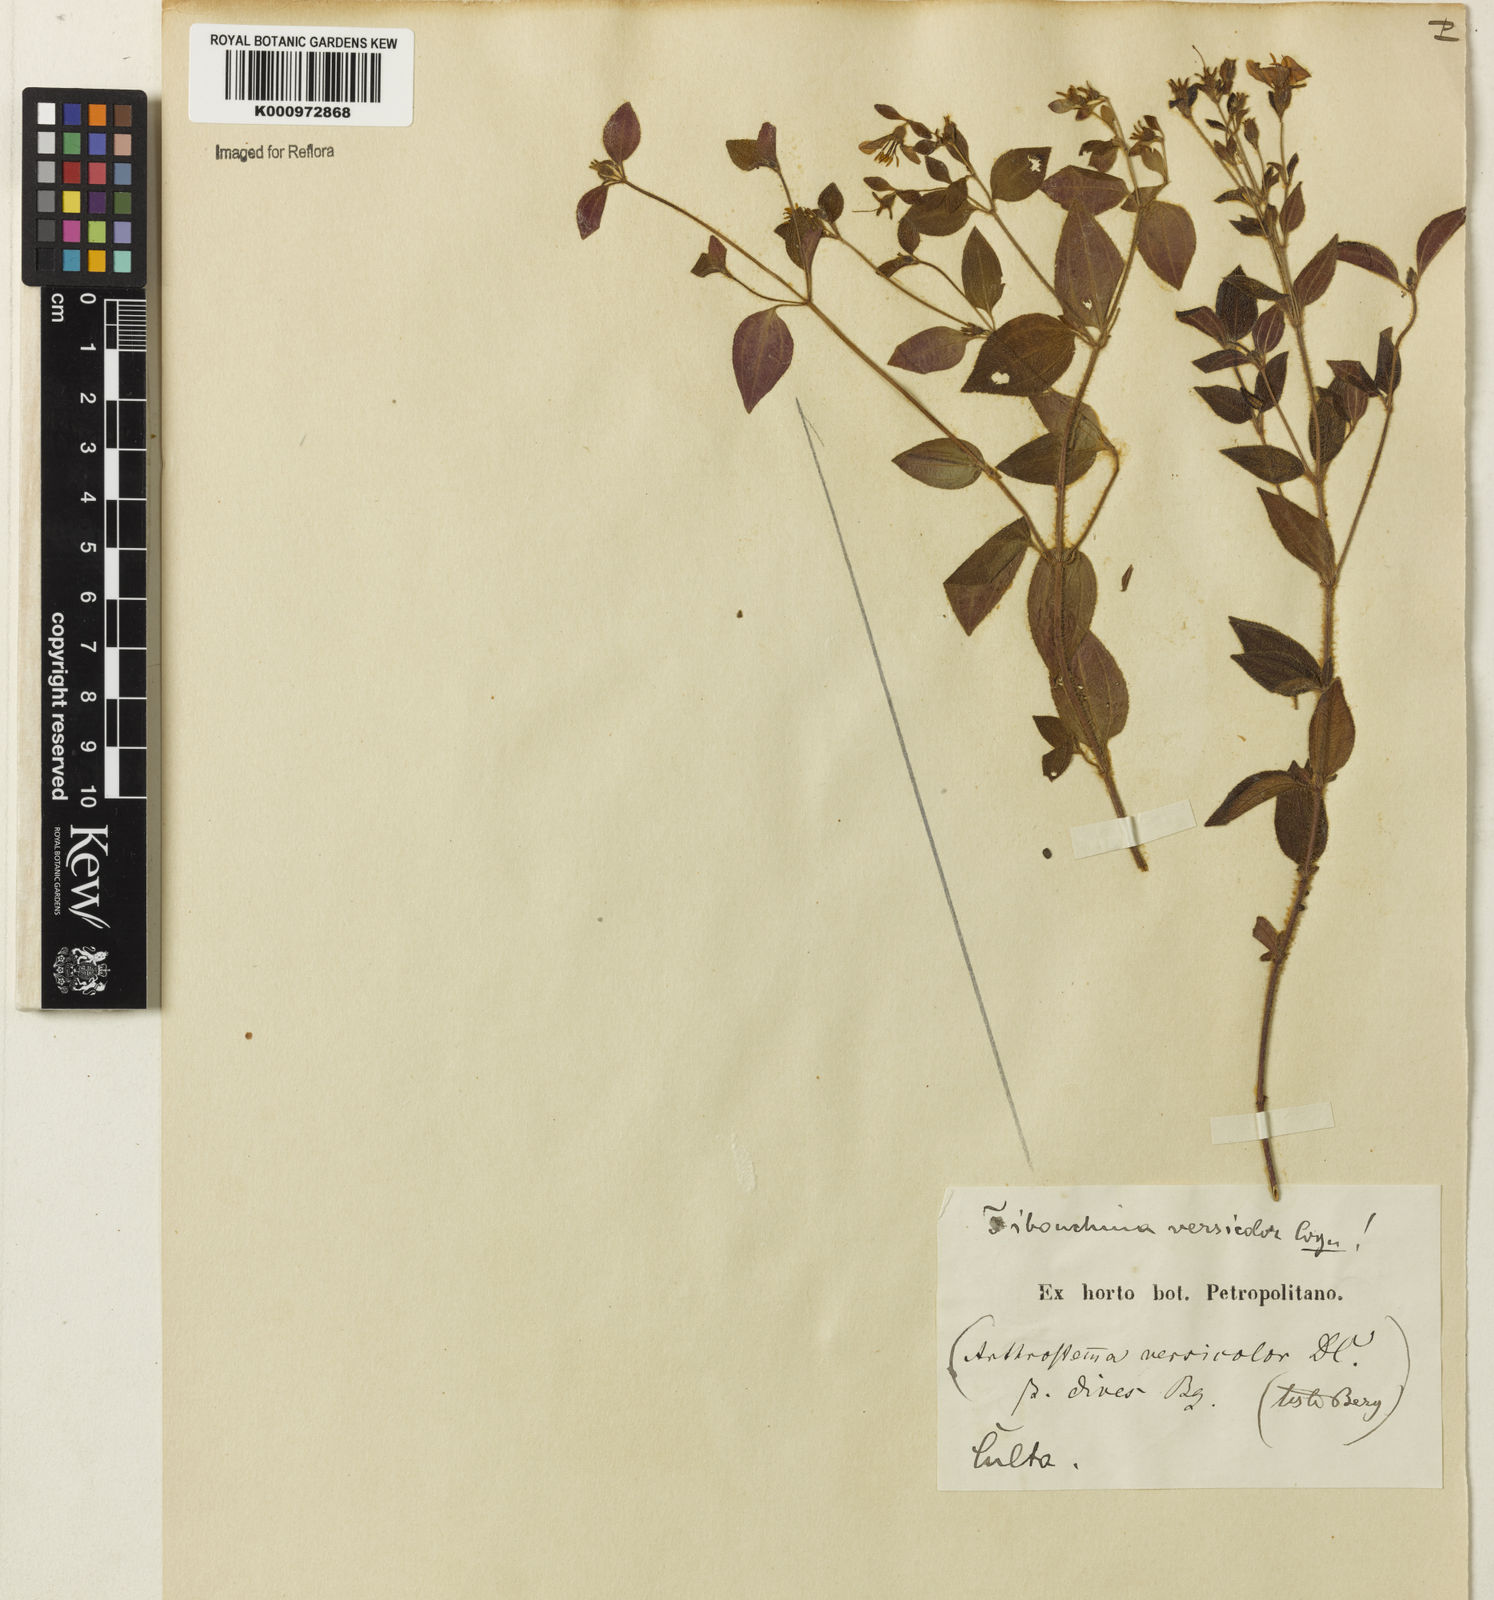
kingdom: Plantae
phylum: Tracheophyta
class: Magnoliopsida
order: Myrtales
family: Melastomataceae
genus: Chaetogastra
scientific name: Chaetogastra versicolor
